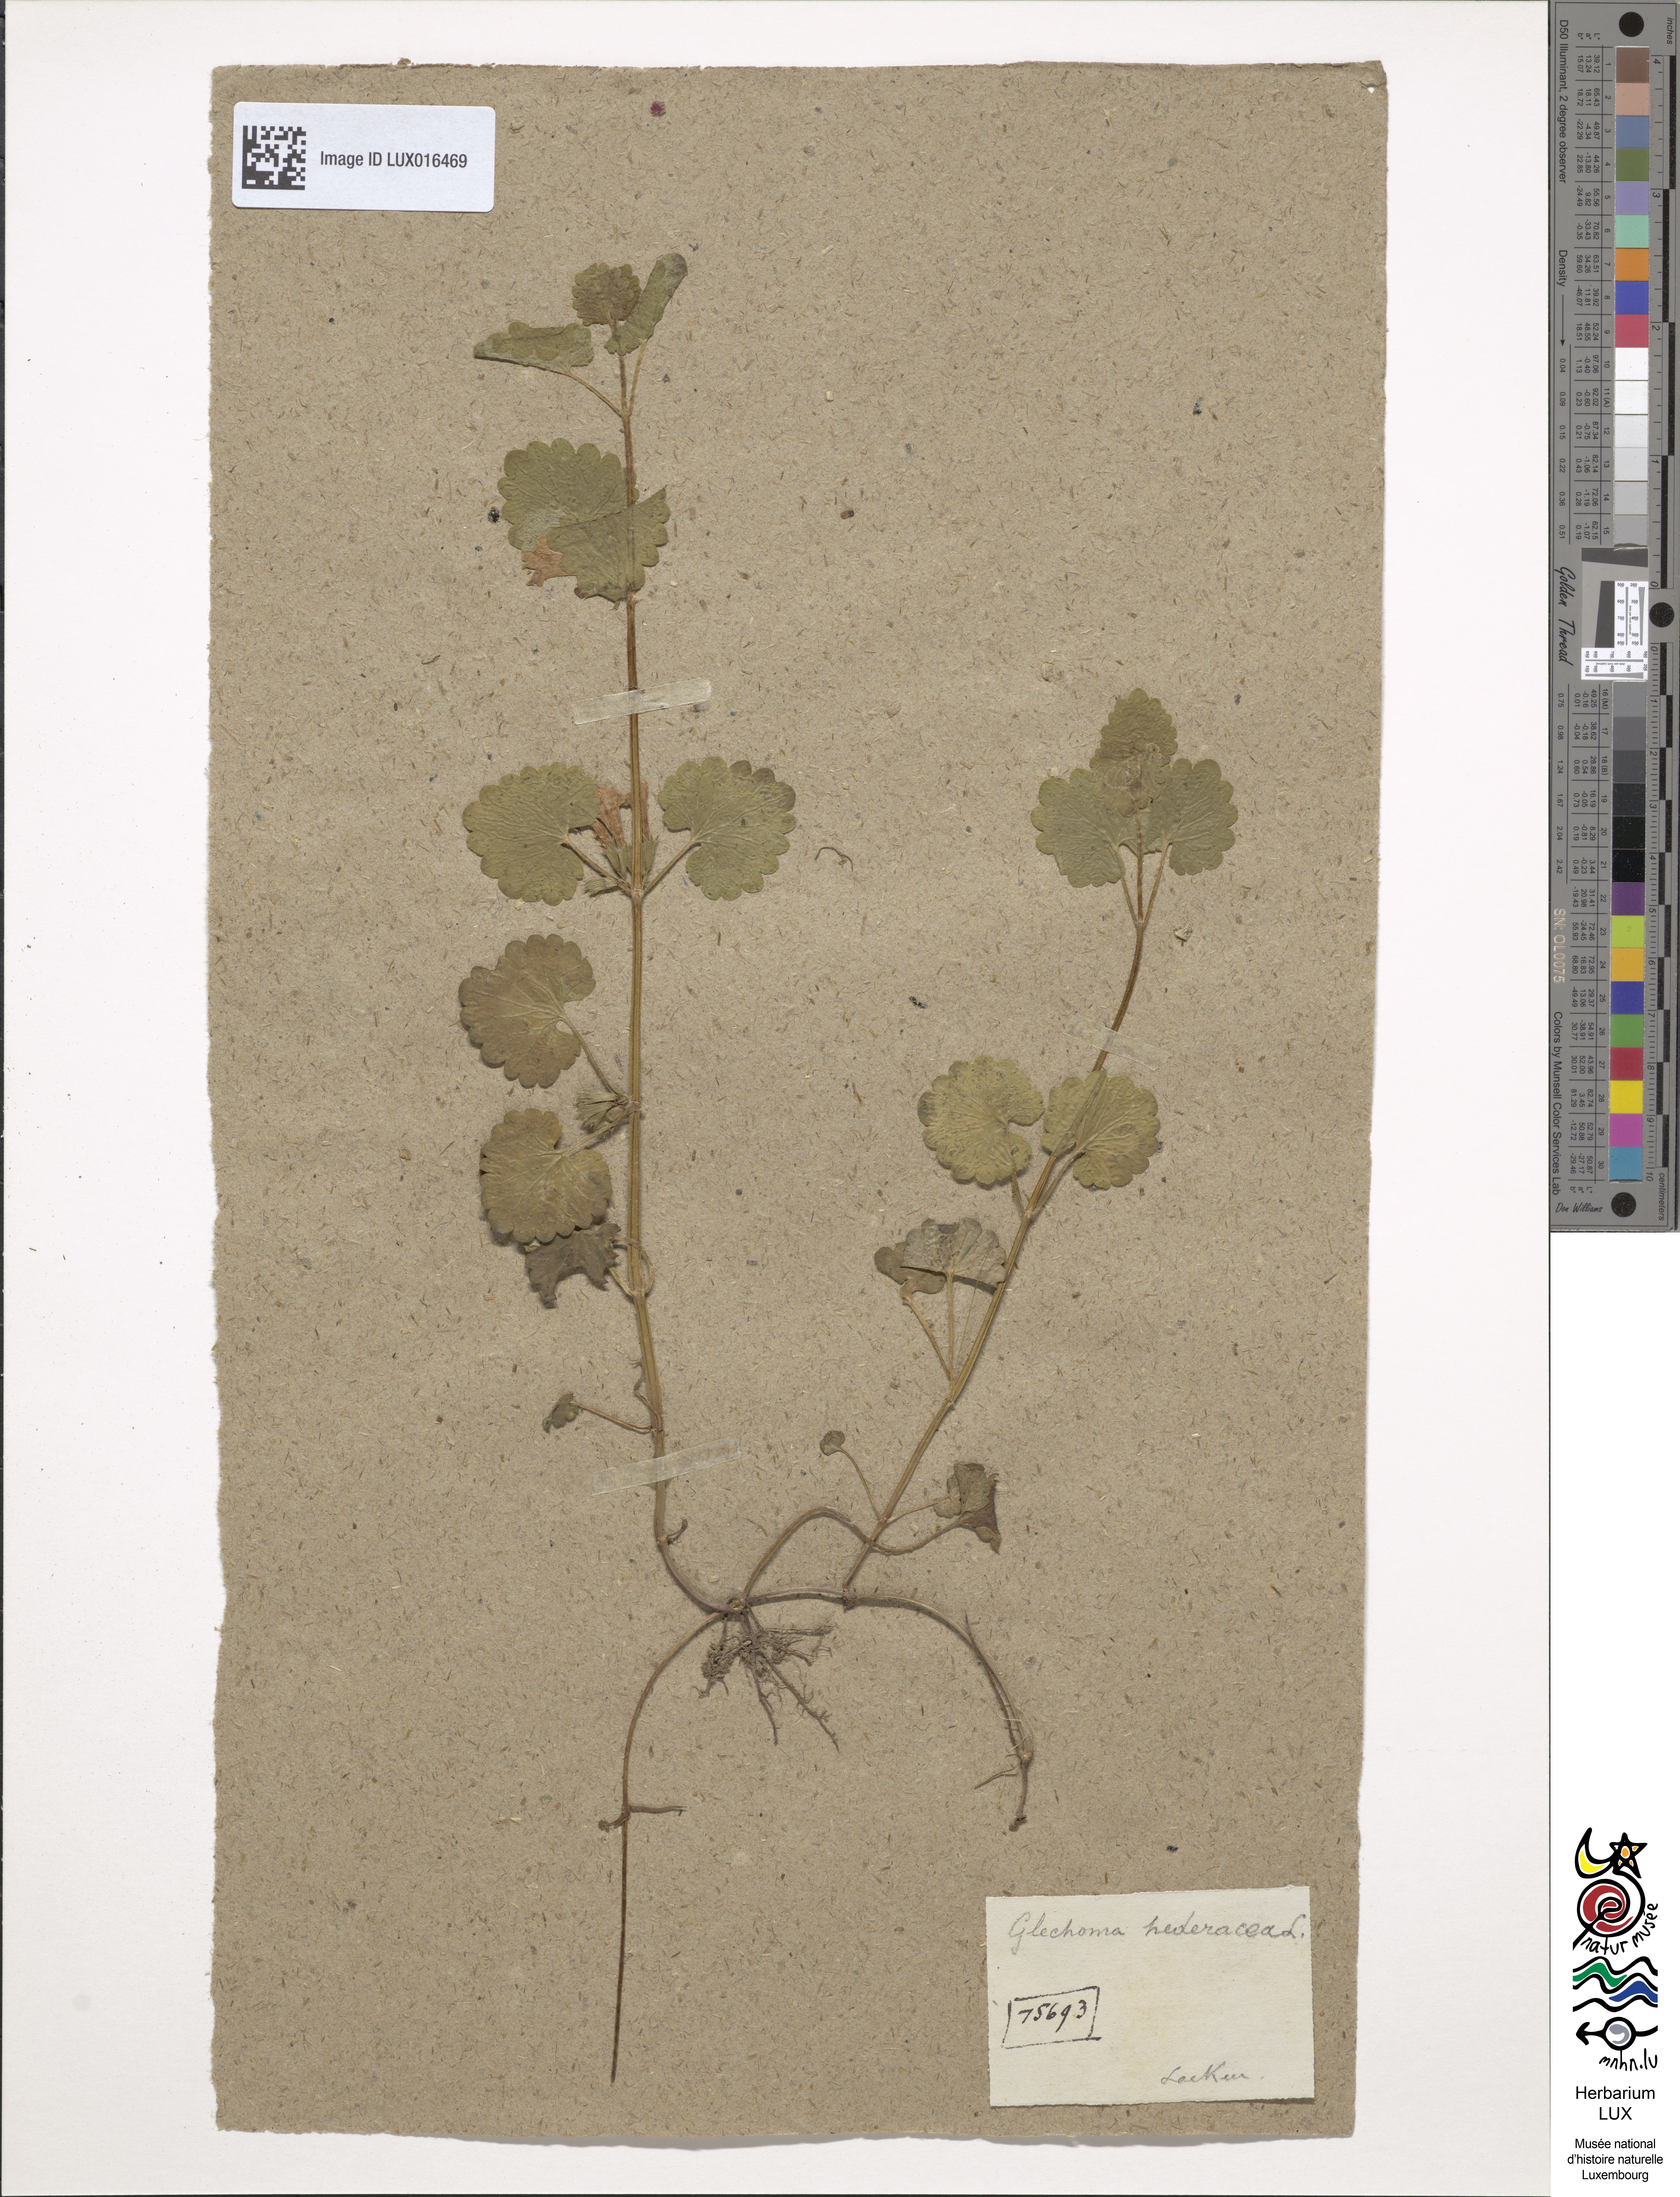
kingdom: Plantae
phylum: Tracheophyta
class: Magnoliopsida
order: Lamiales
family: Lamiaceae
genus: Glechoma
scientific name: Glechoma hederacea
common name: Ground ivy
